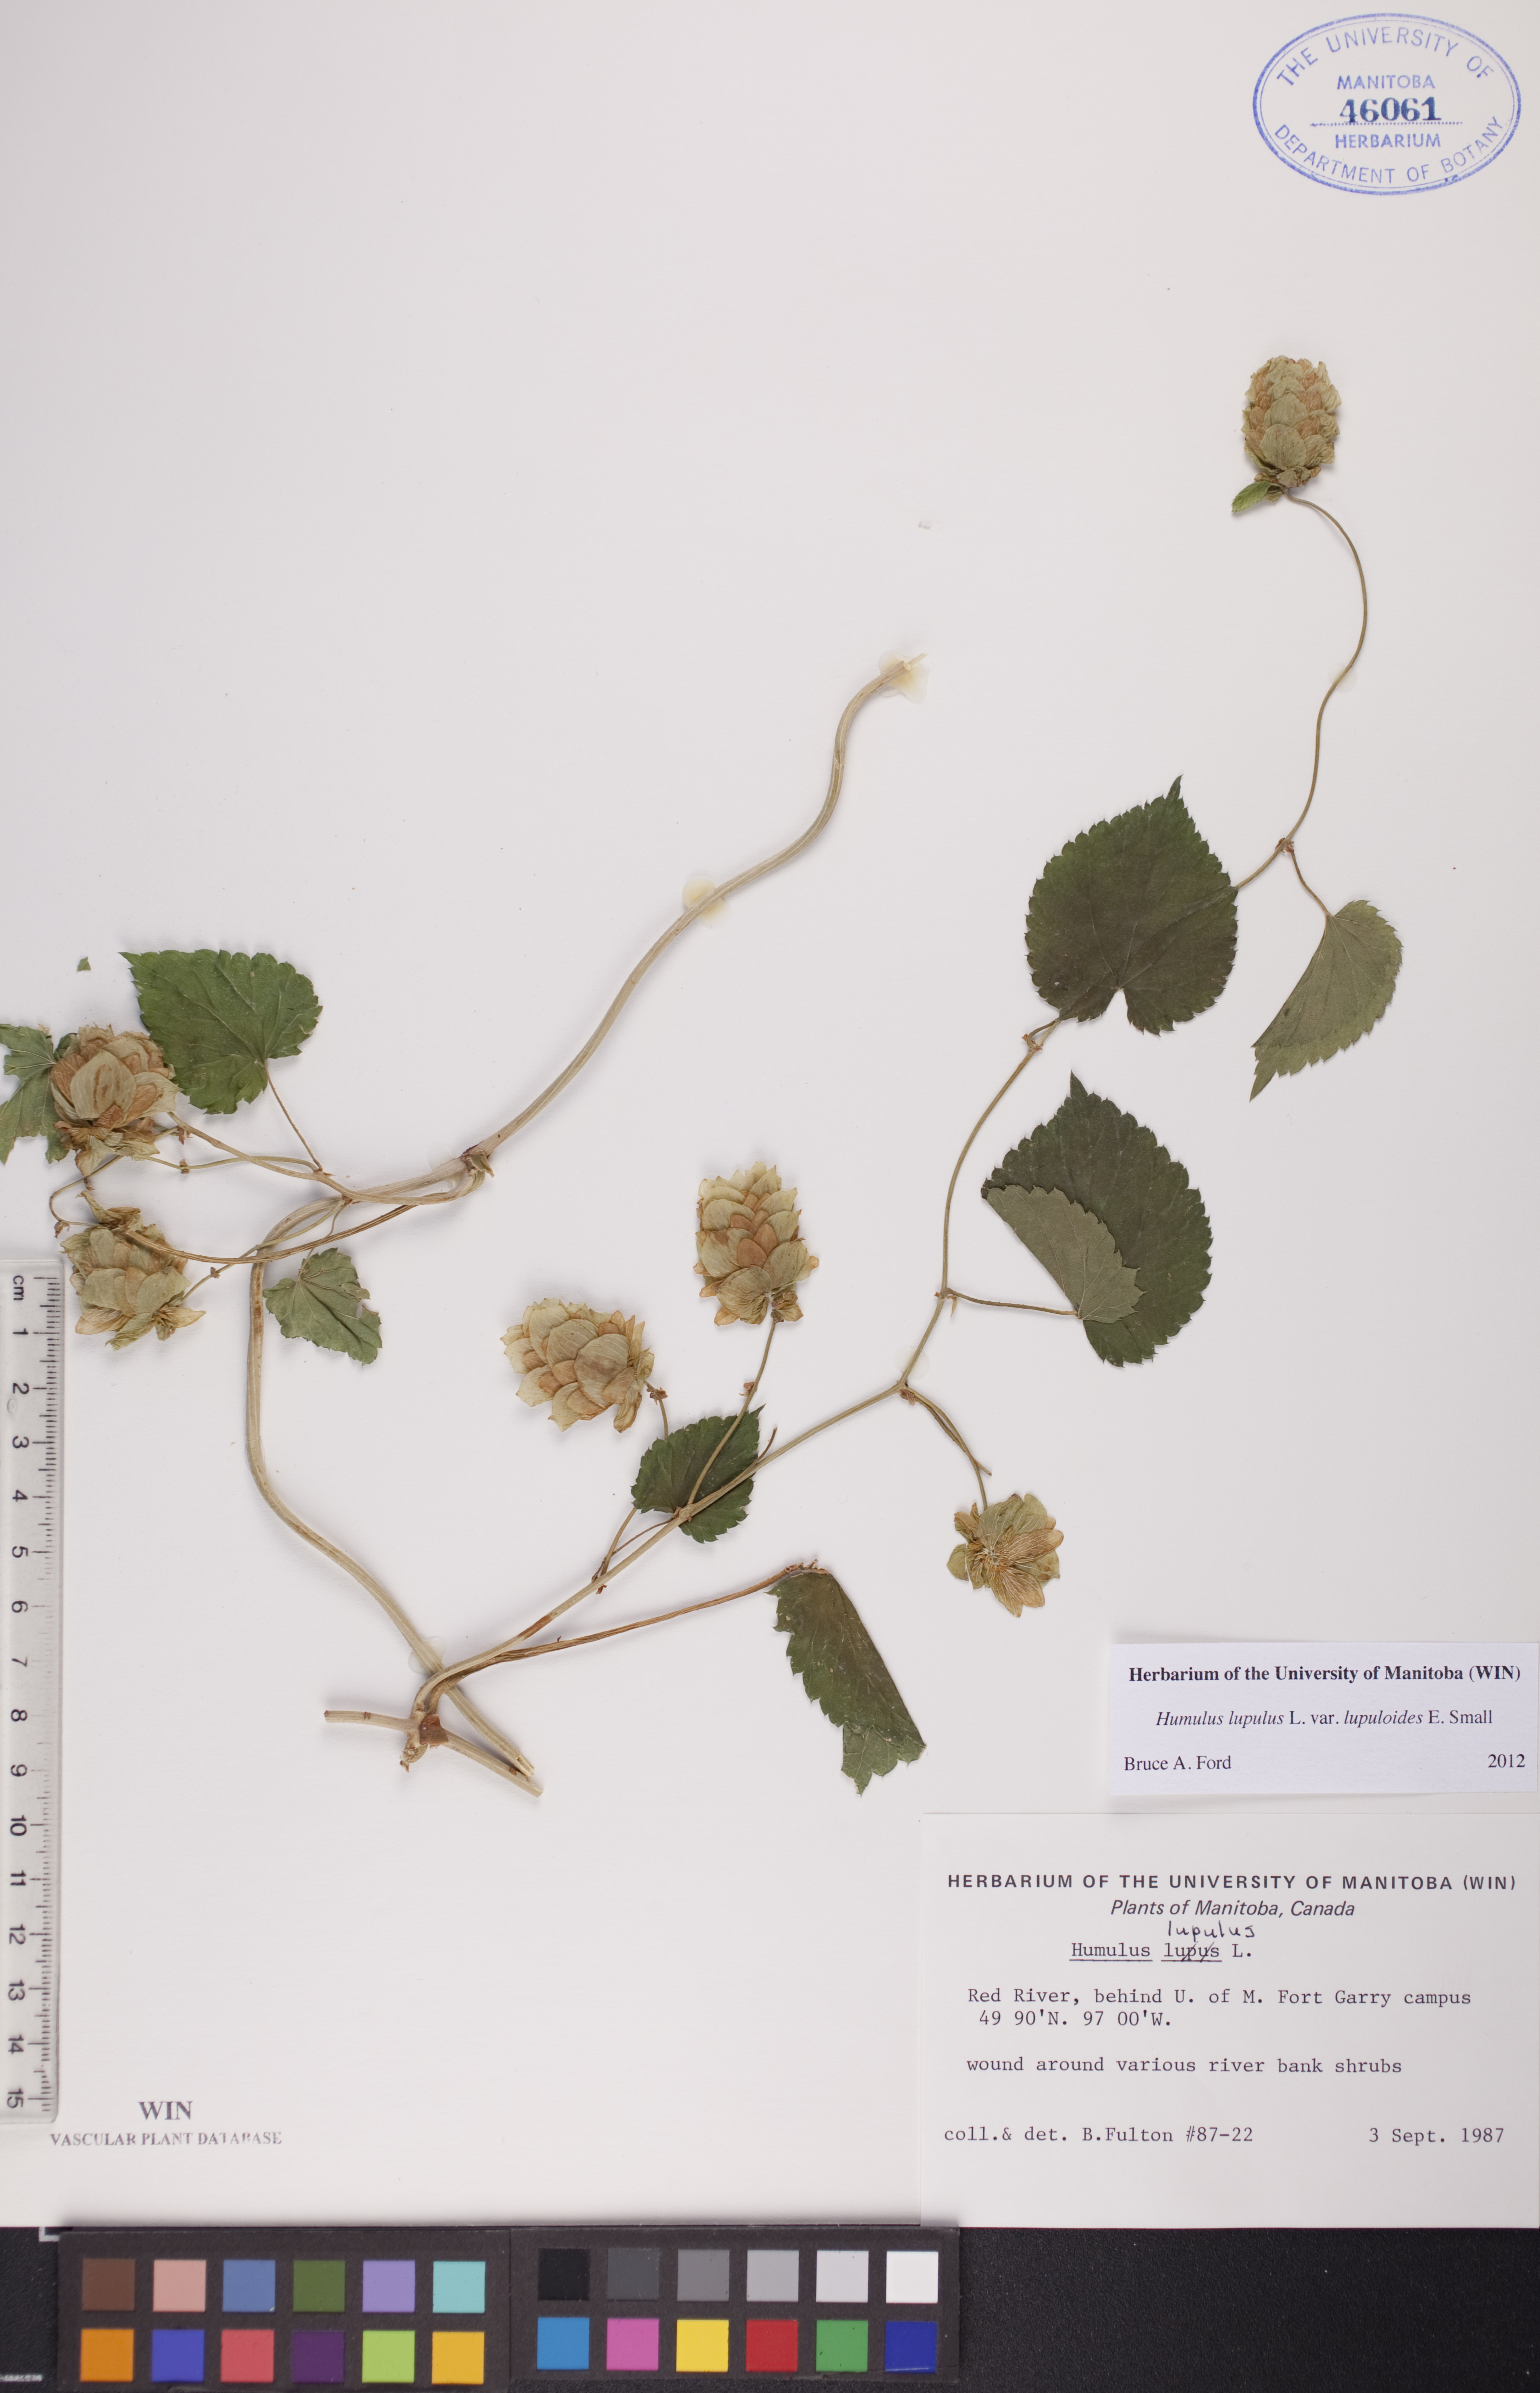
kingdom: Plantae
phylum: Tracheophyta
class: Magnoliopsida
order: Rosales
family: Cannabaceae
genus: Humulus
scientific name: Humulus lupulus
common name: Hop
